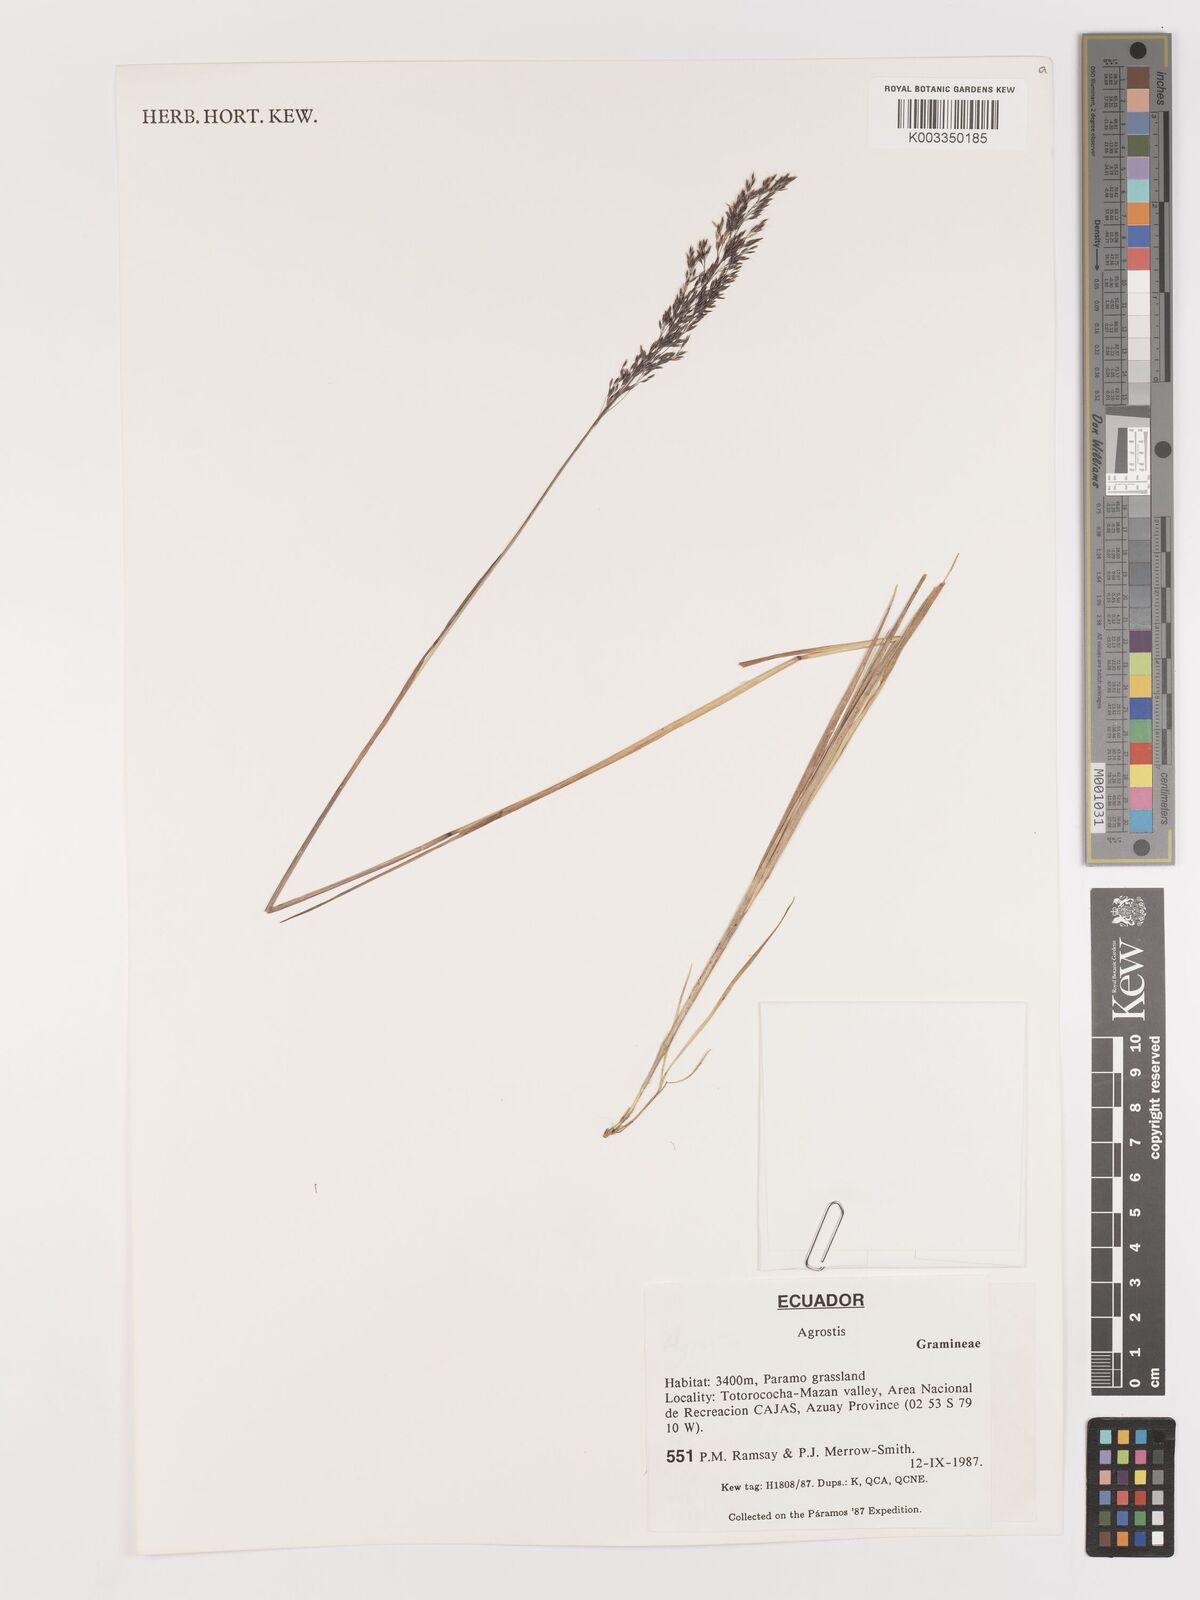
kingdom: Plantae
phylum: Tracheophyta
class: Liliopsida
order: Poales
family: Poaceae
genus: Agrostis
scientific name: Agrostis
